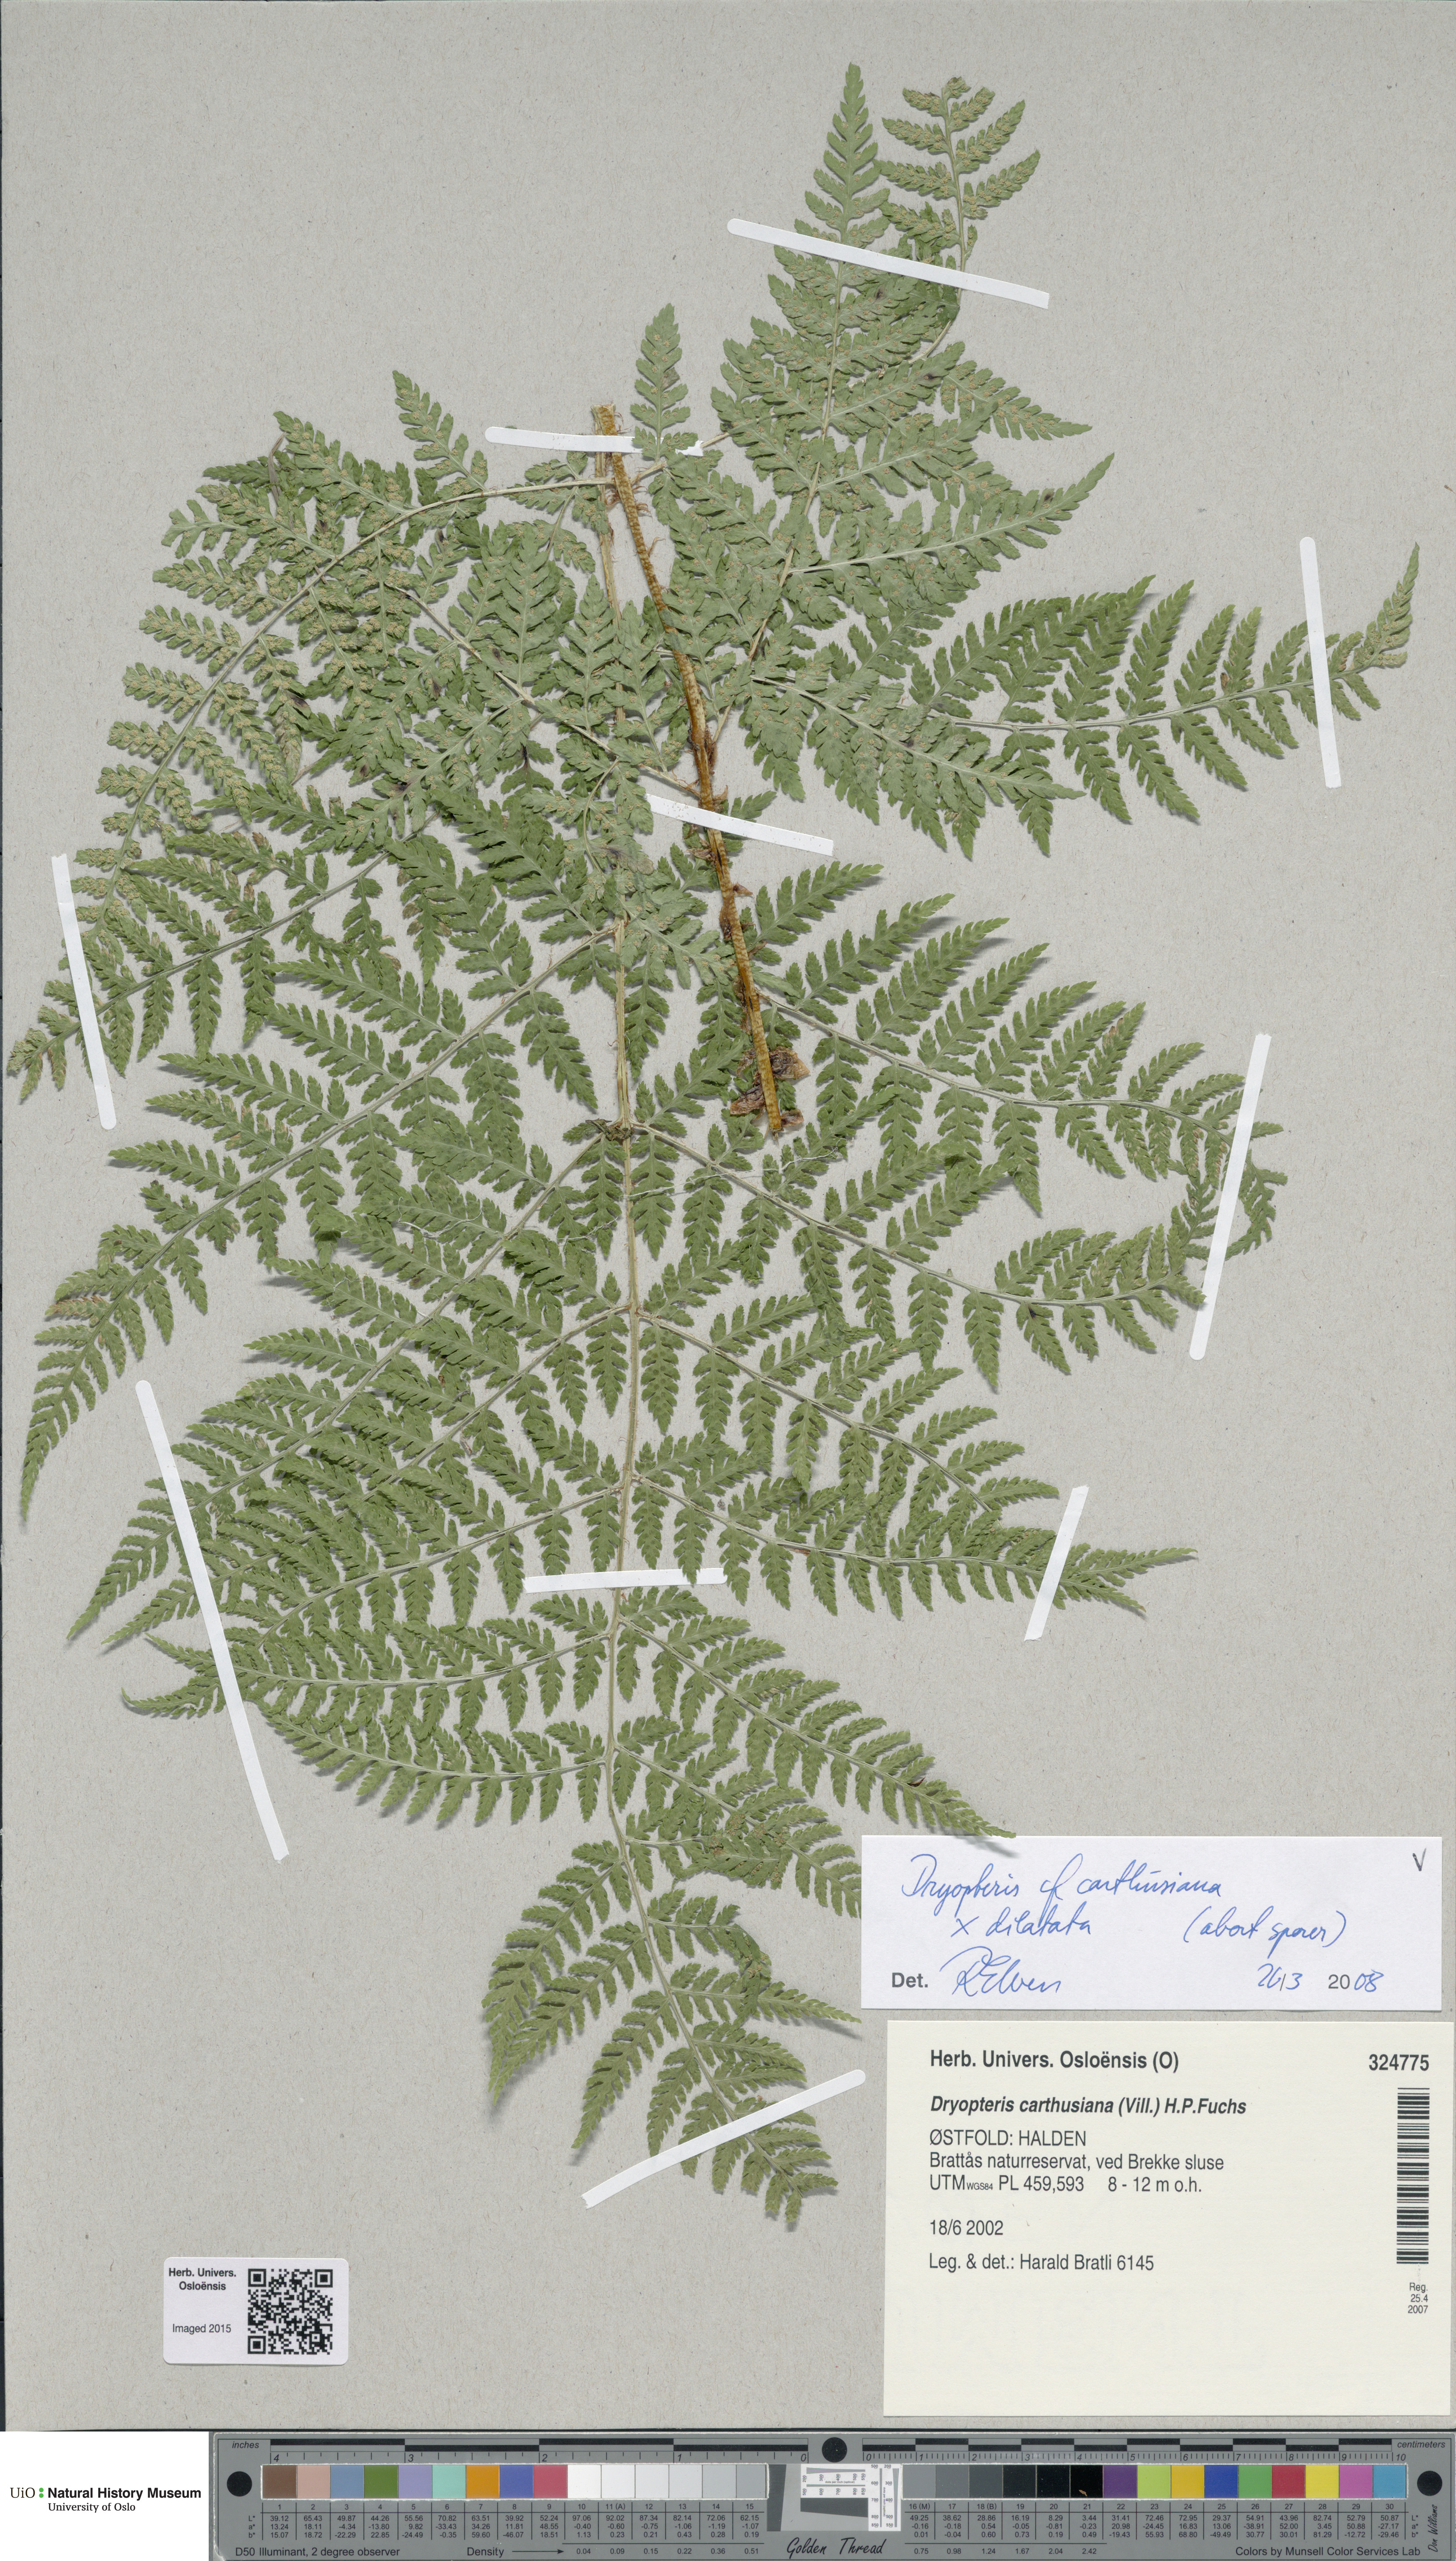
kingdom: Plantae
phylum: Tracheophyta
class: Polypodiopsida
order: Polypodiales
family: Dryopteridaceae
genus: Dryopteris
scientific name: Dryopteris
